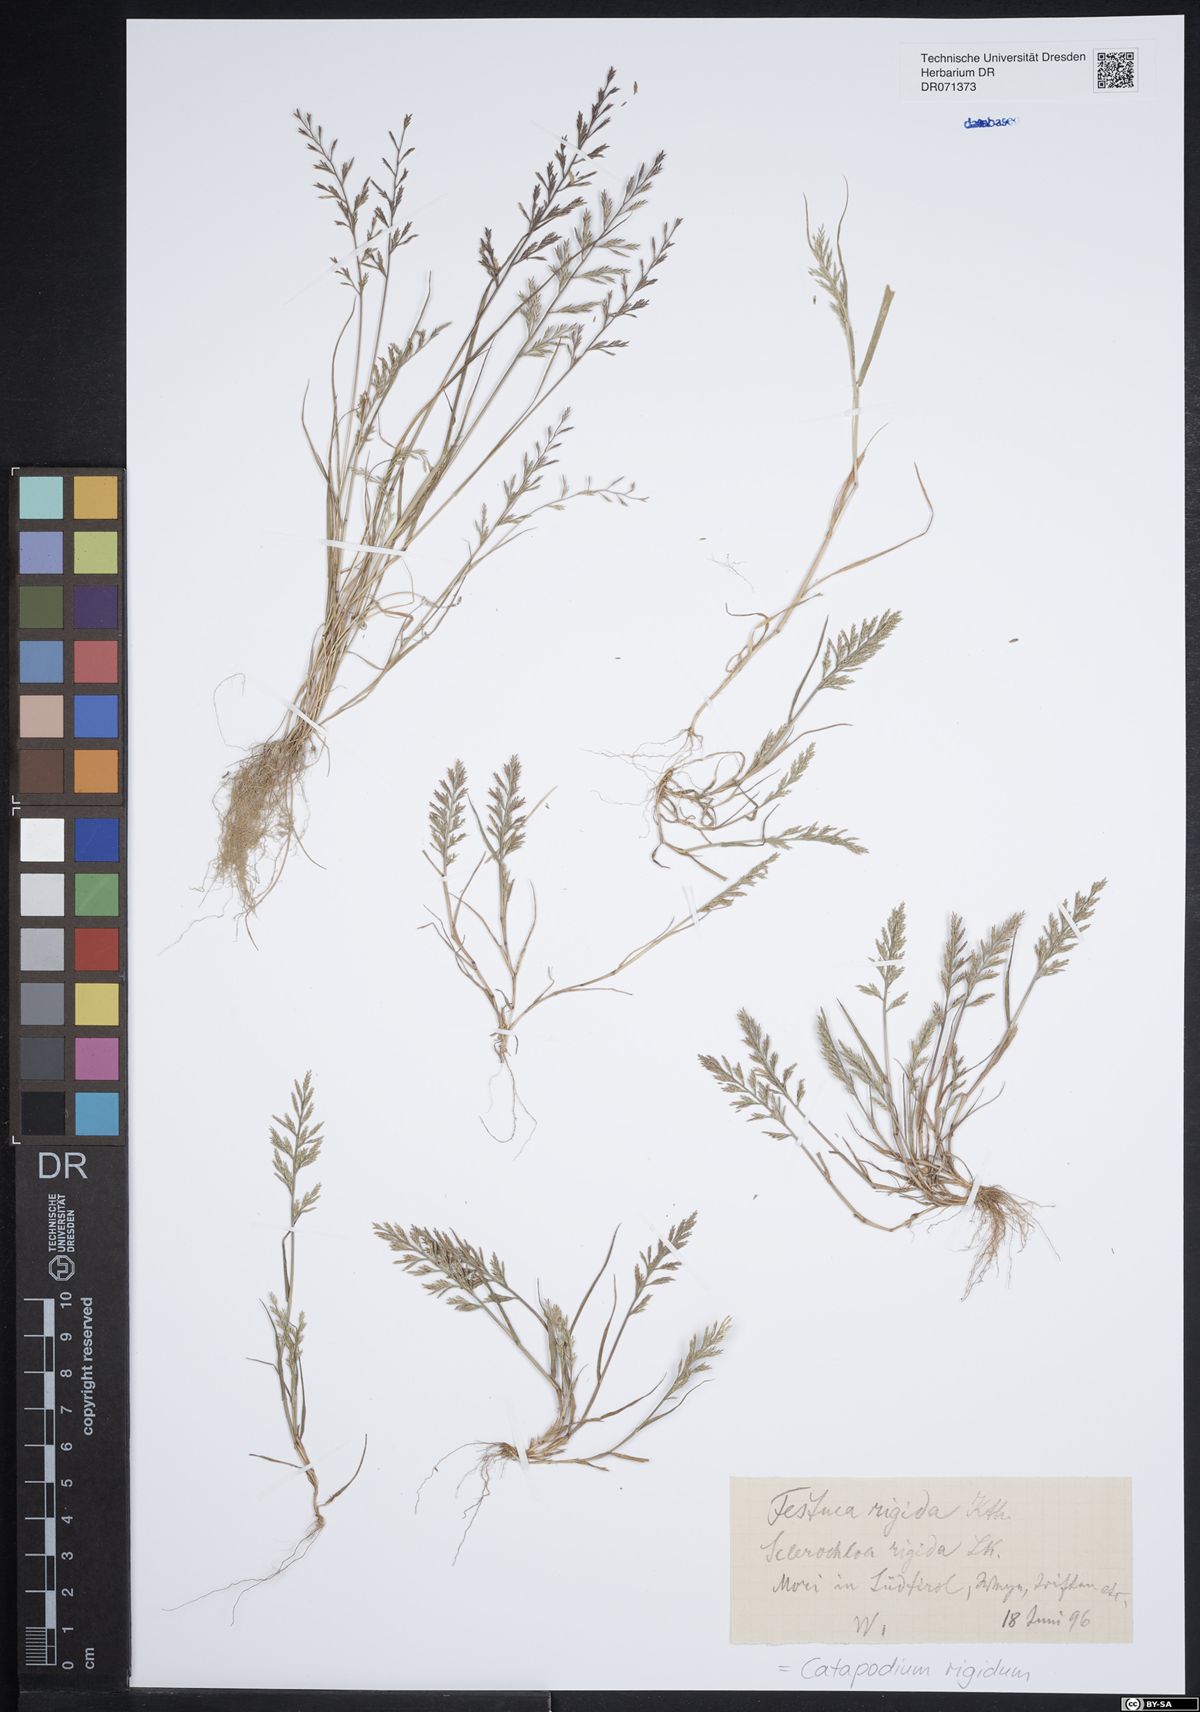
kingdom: Plantae
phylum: Tracheophyta
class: Liliopsida
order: Poales
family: Poaceae
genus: Catapodium
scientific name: Catapodium rigidum
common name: Fern-grass
